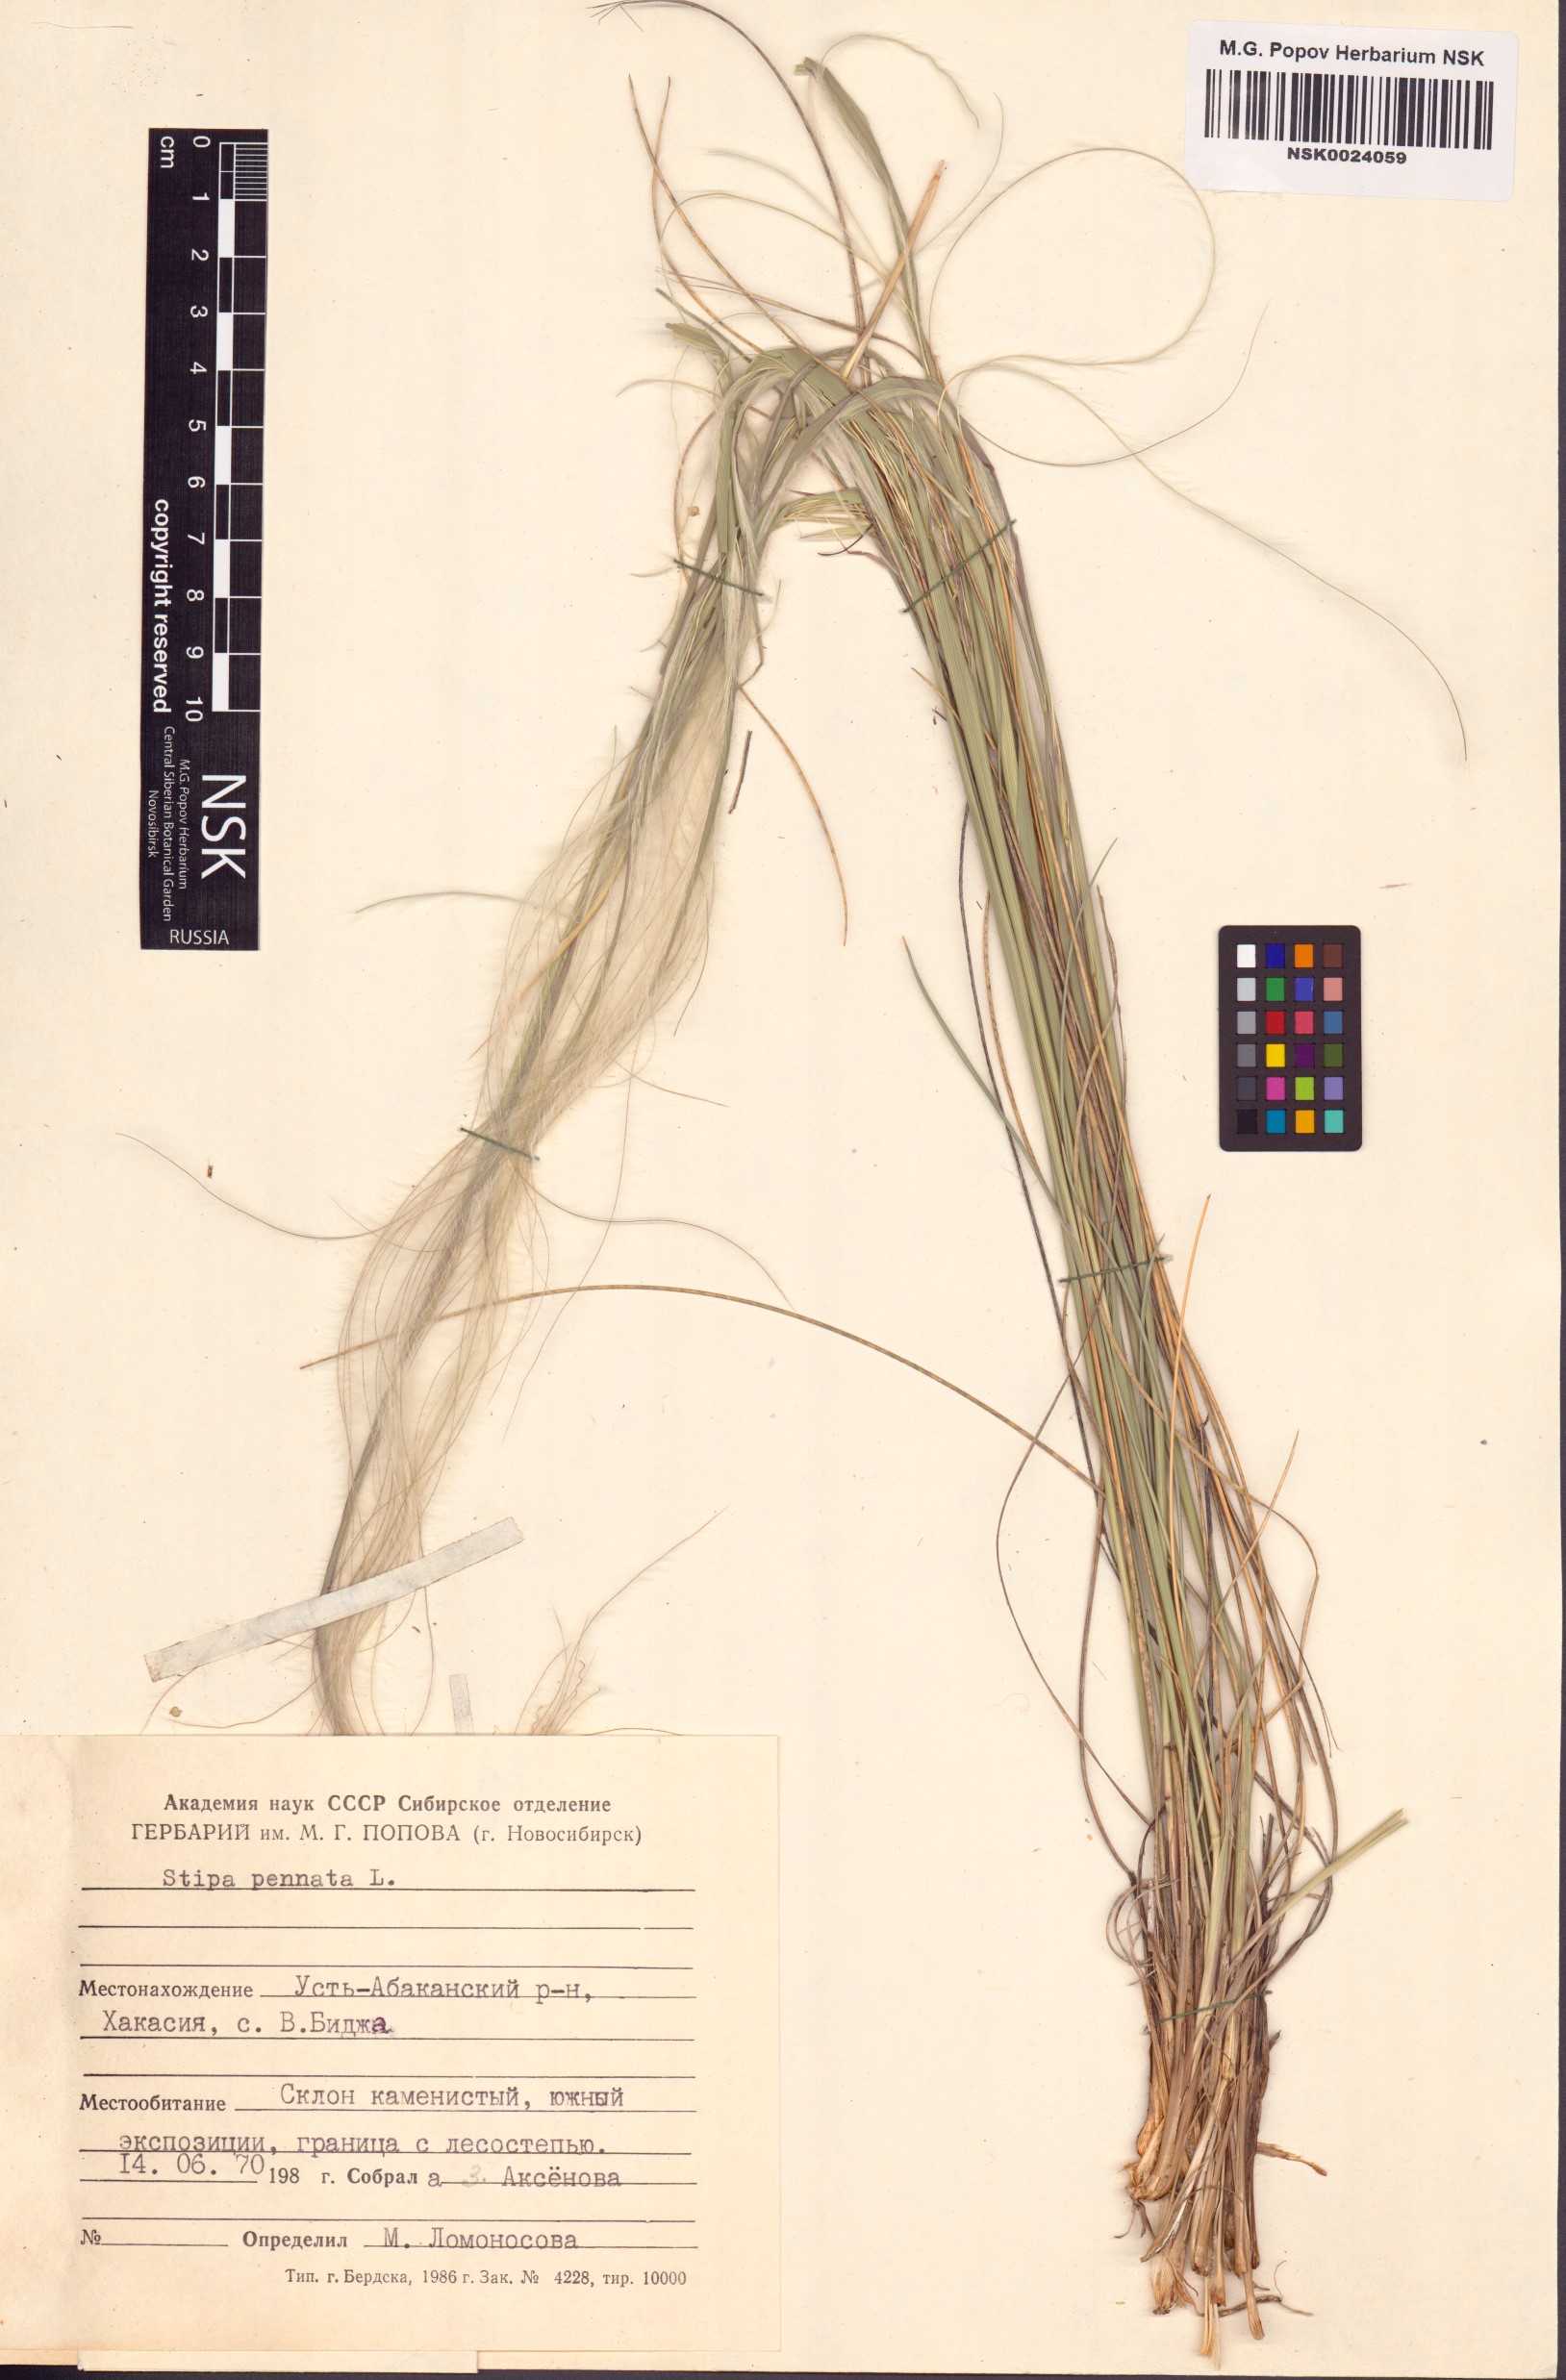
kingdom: Plantae
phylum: Tracheophyta
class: Liliopsida
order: Poales
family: Poaceae
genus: Stipa
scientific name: Stipa pennata
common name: European feather grass
